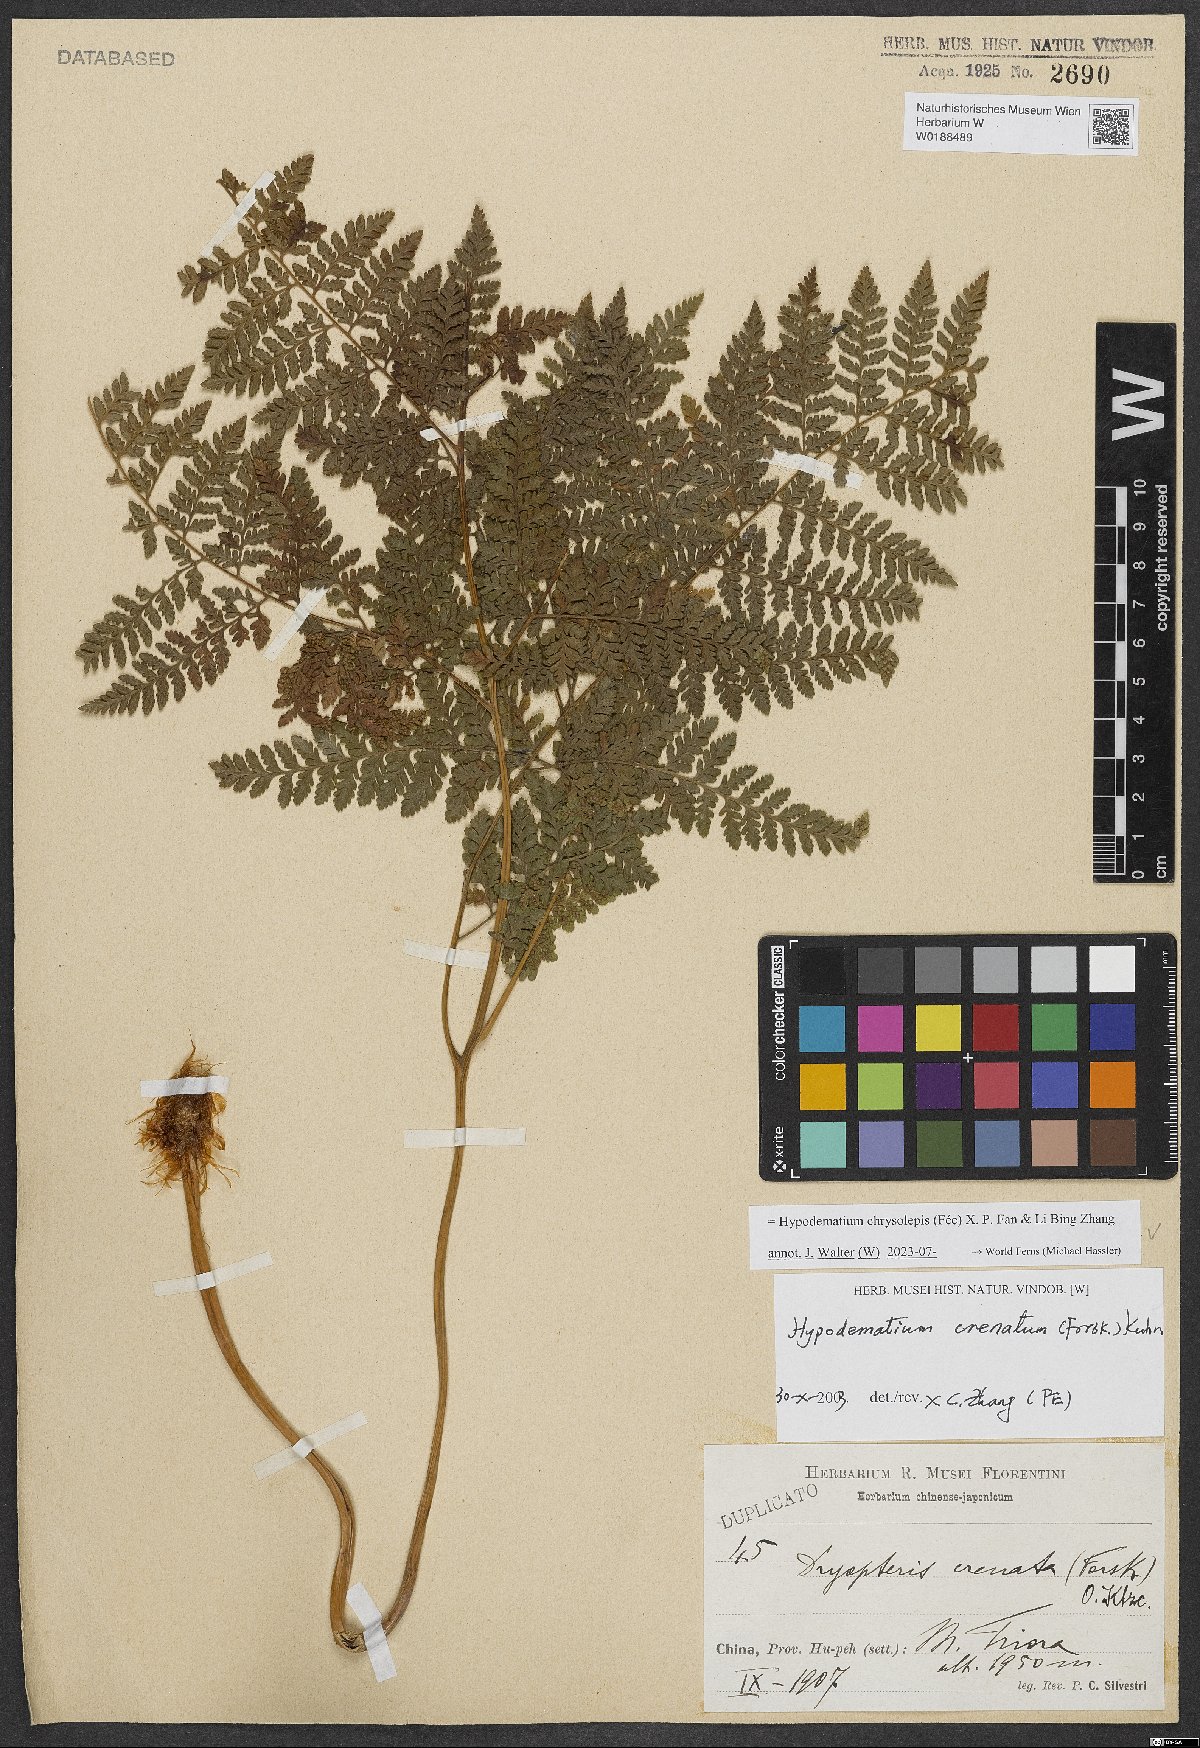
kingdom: Plantae
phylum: Tracheophyta
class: Polypodiopsida
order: Polypodiales
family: Hypodematiaceae
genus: Hypodematium
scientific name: Hypodematium chrysolepis
